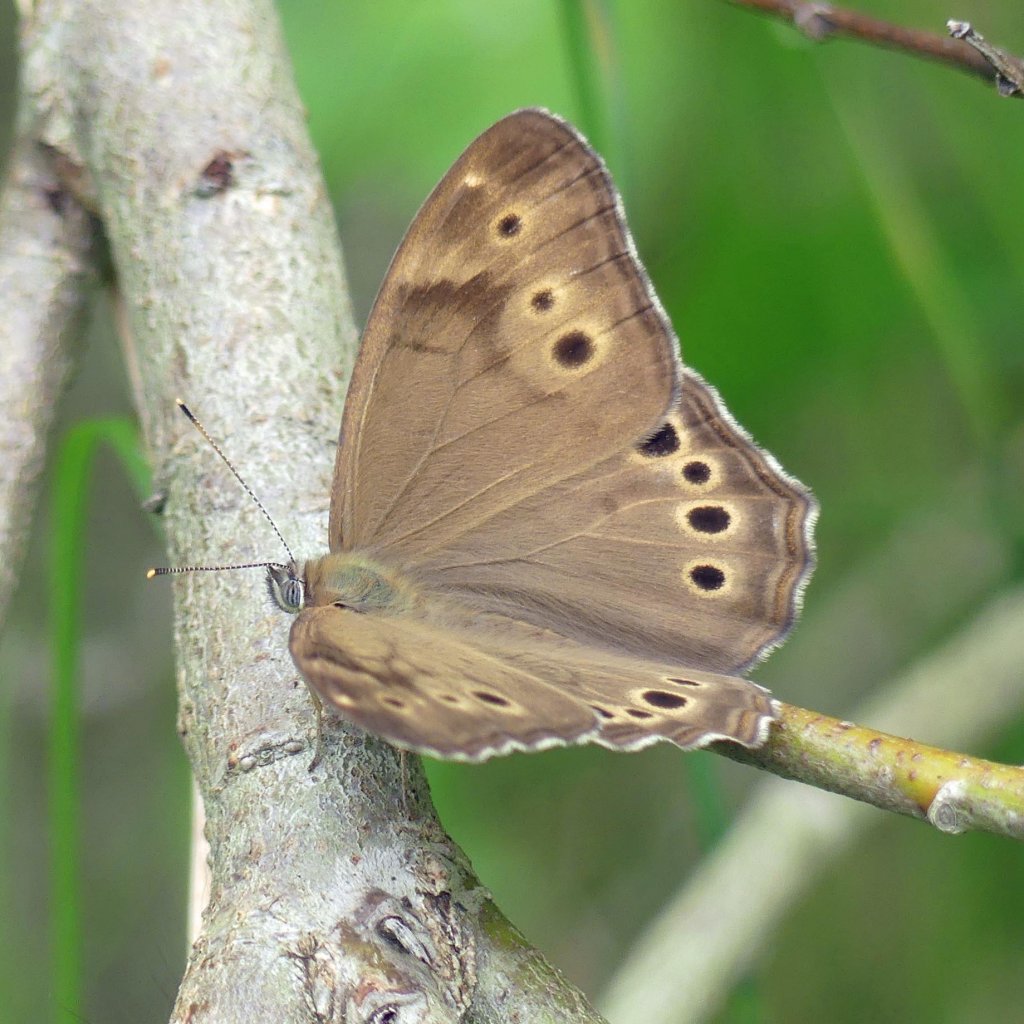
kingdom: Animalia
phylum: Arthropoda
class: Insecta
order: Lepidoptera
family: Nymphalidae
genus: Lethe
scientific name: Lethe anthedon
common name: Northern Pearly-Eye
